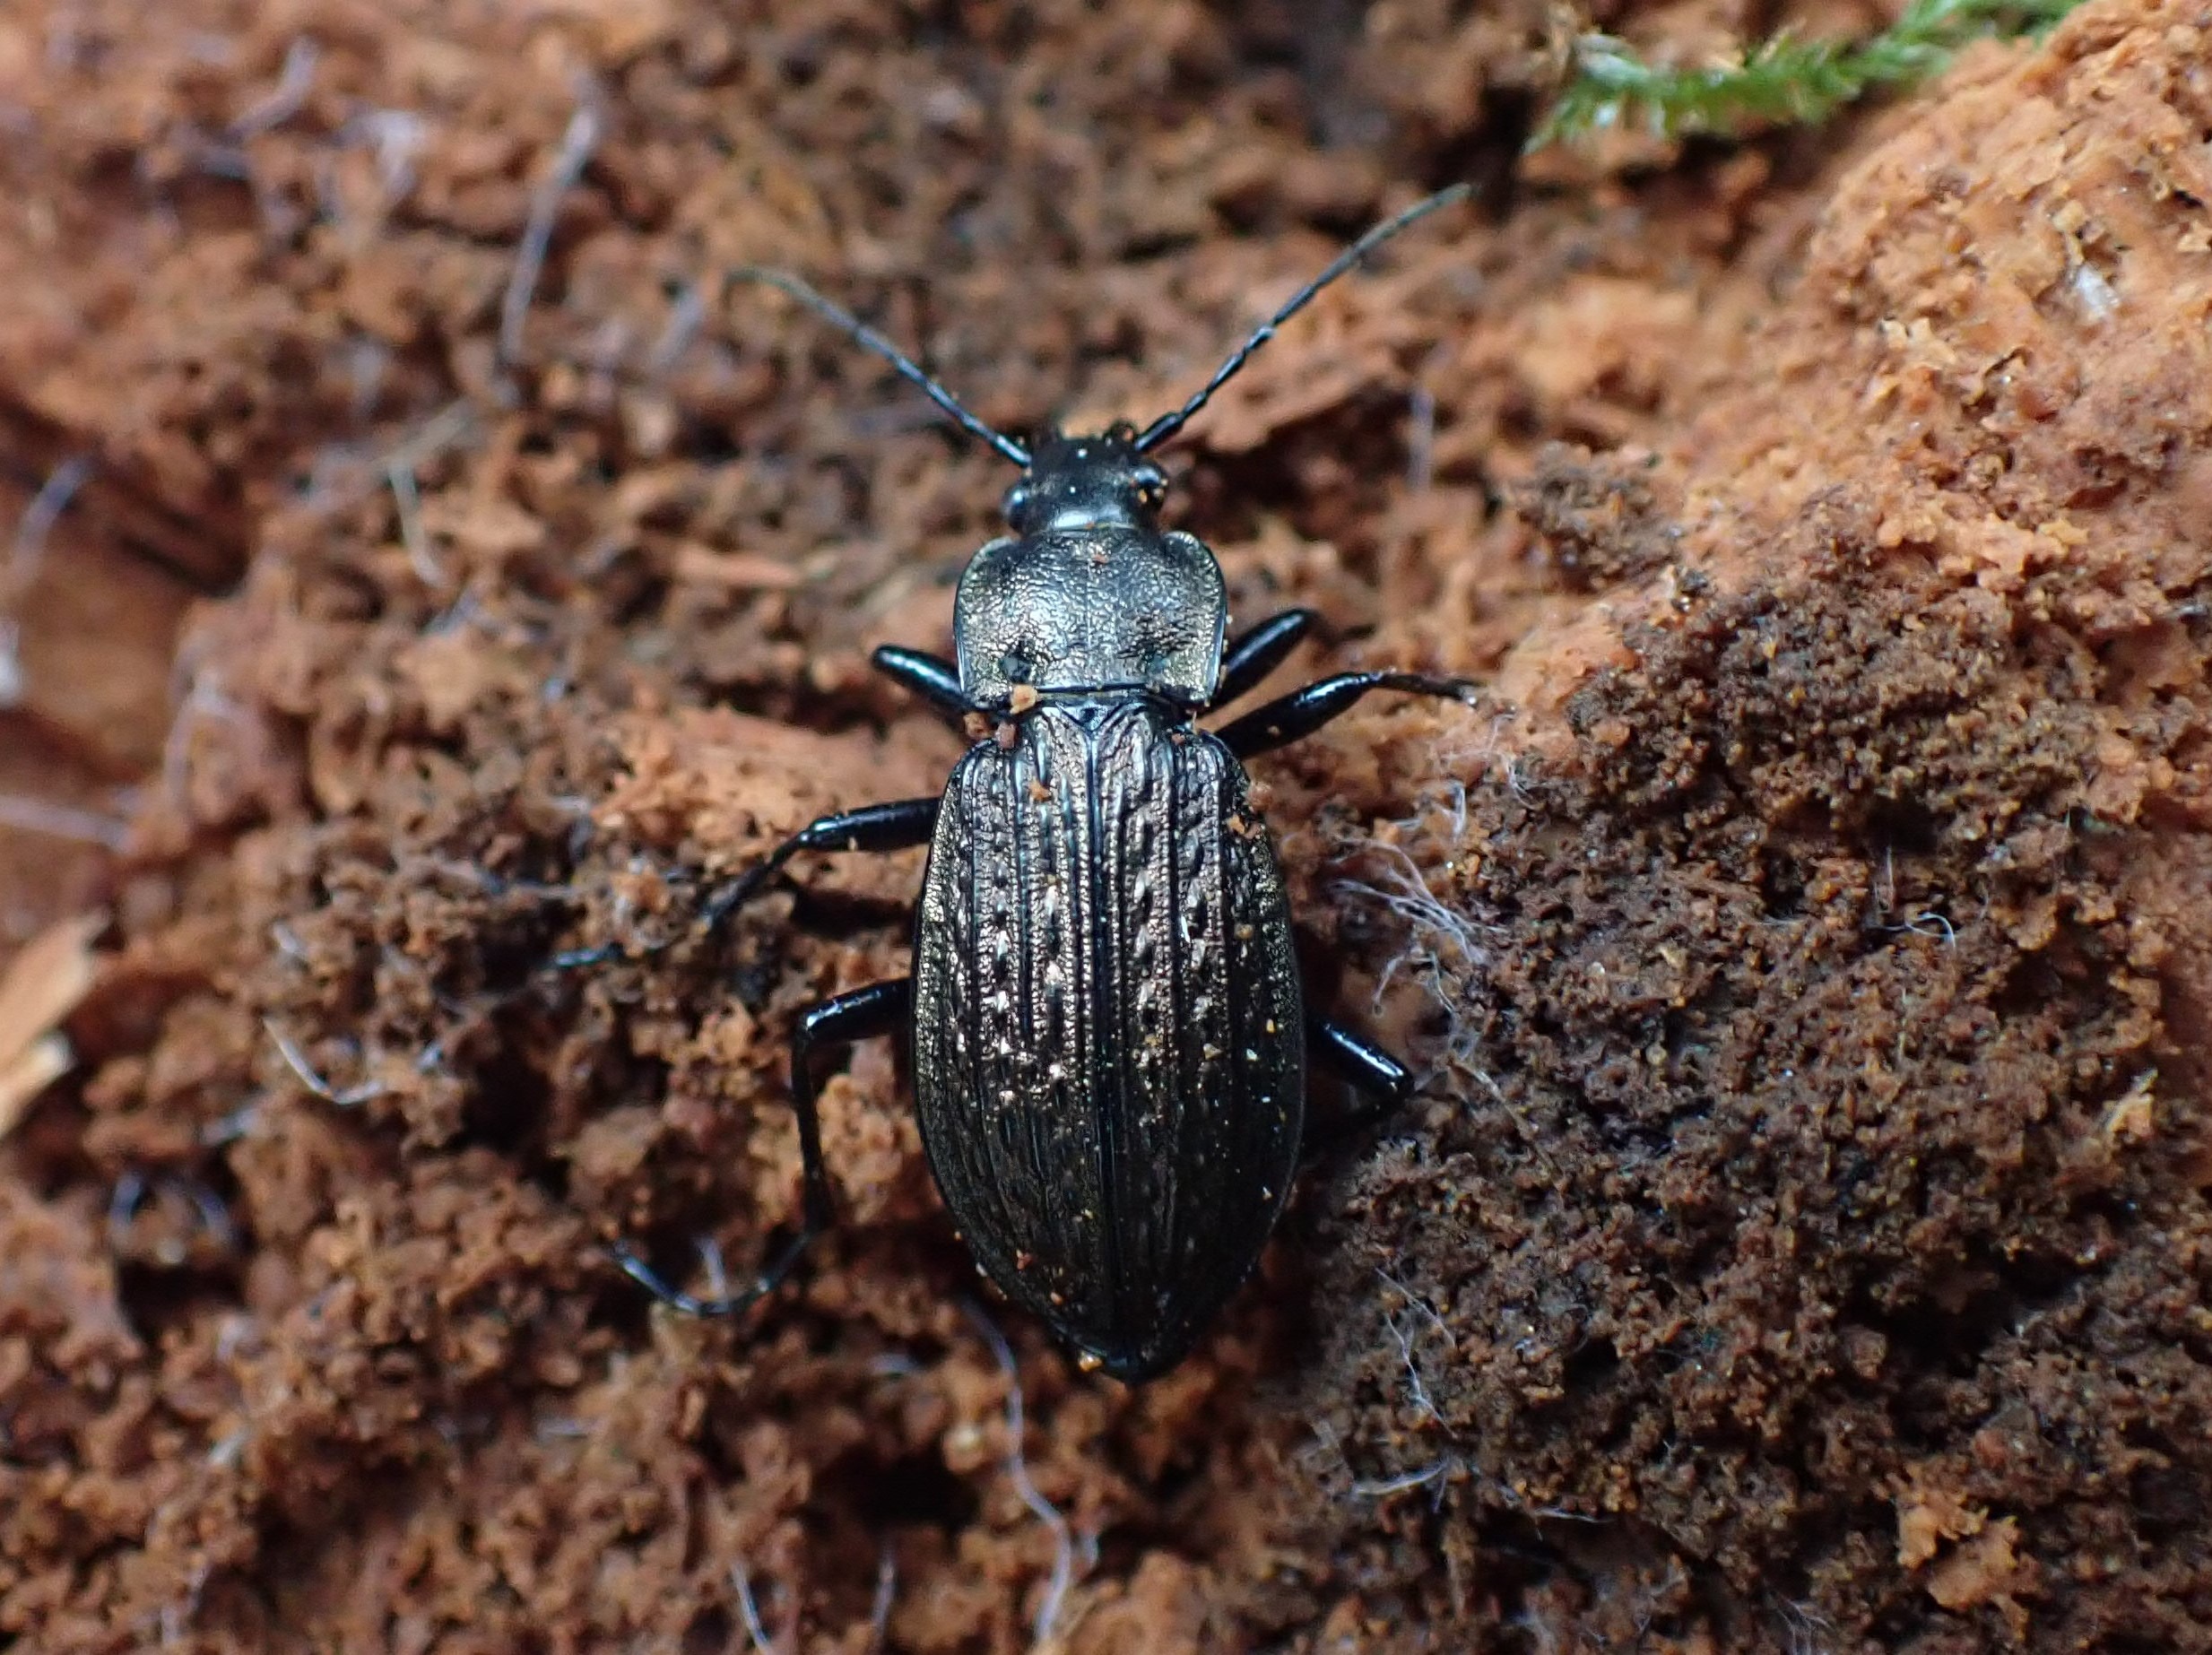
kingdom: Animalia
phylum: Arthropoda
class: Insecta
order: Coleoptera
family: Carabidae
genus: Carabus
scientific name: Carabus granulatus
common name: Kornet løber
